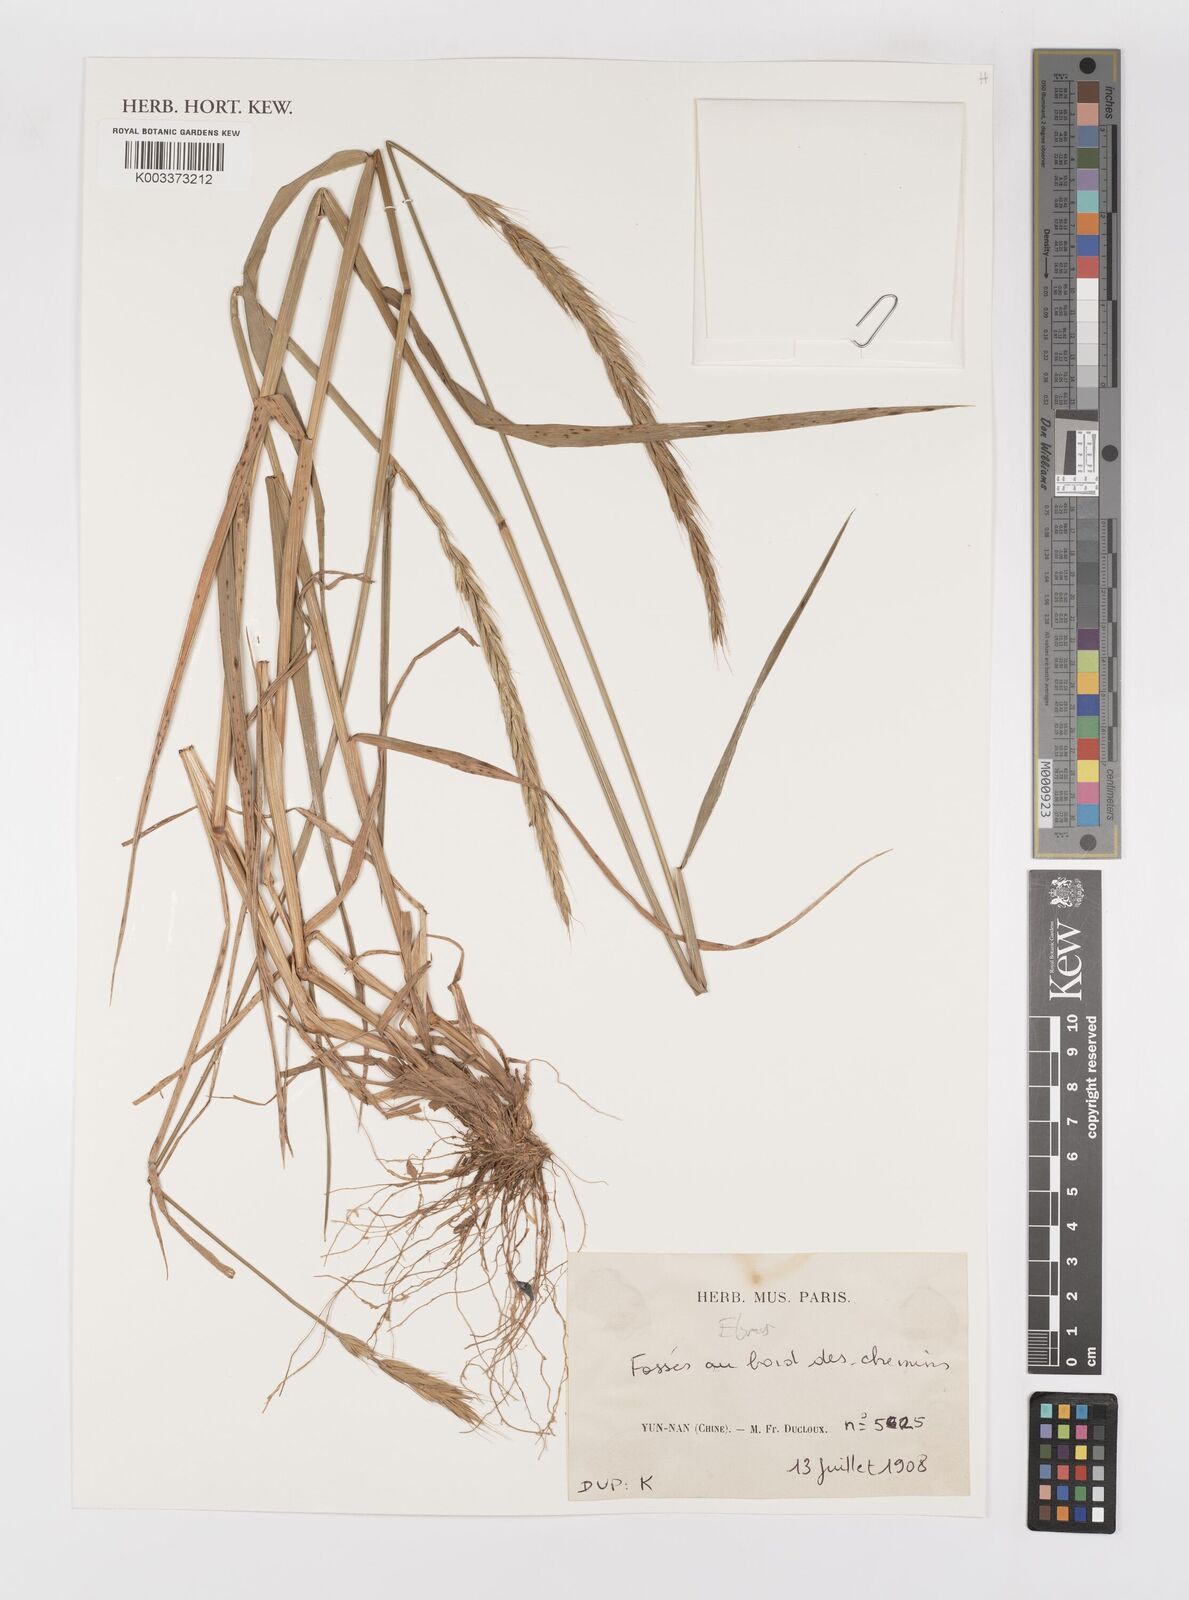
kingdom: Plantae
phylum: Tracheophyta
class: Liliopsida
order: Poales
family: Poaceae
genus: Elymus
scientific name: Elymus
